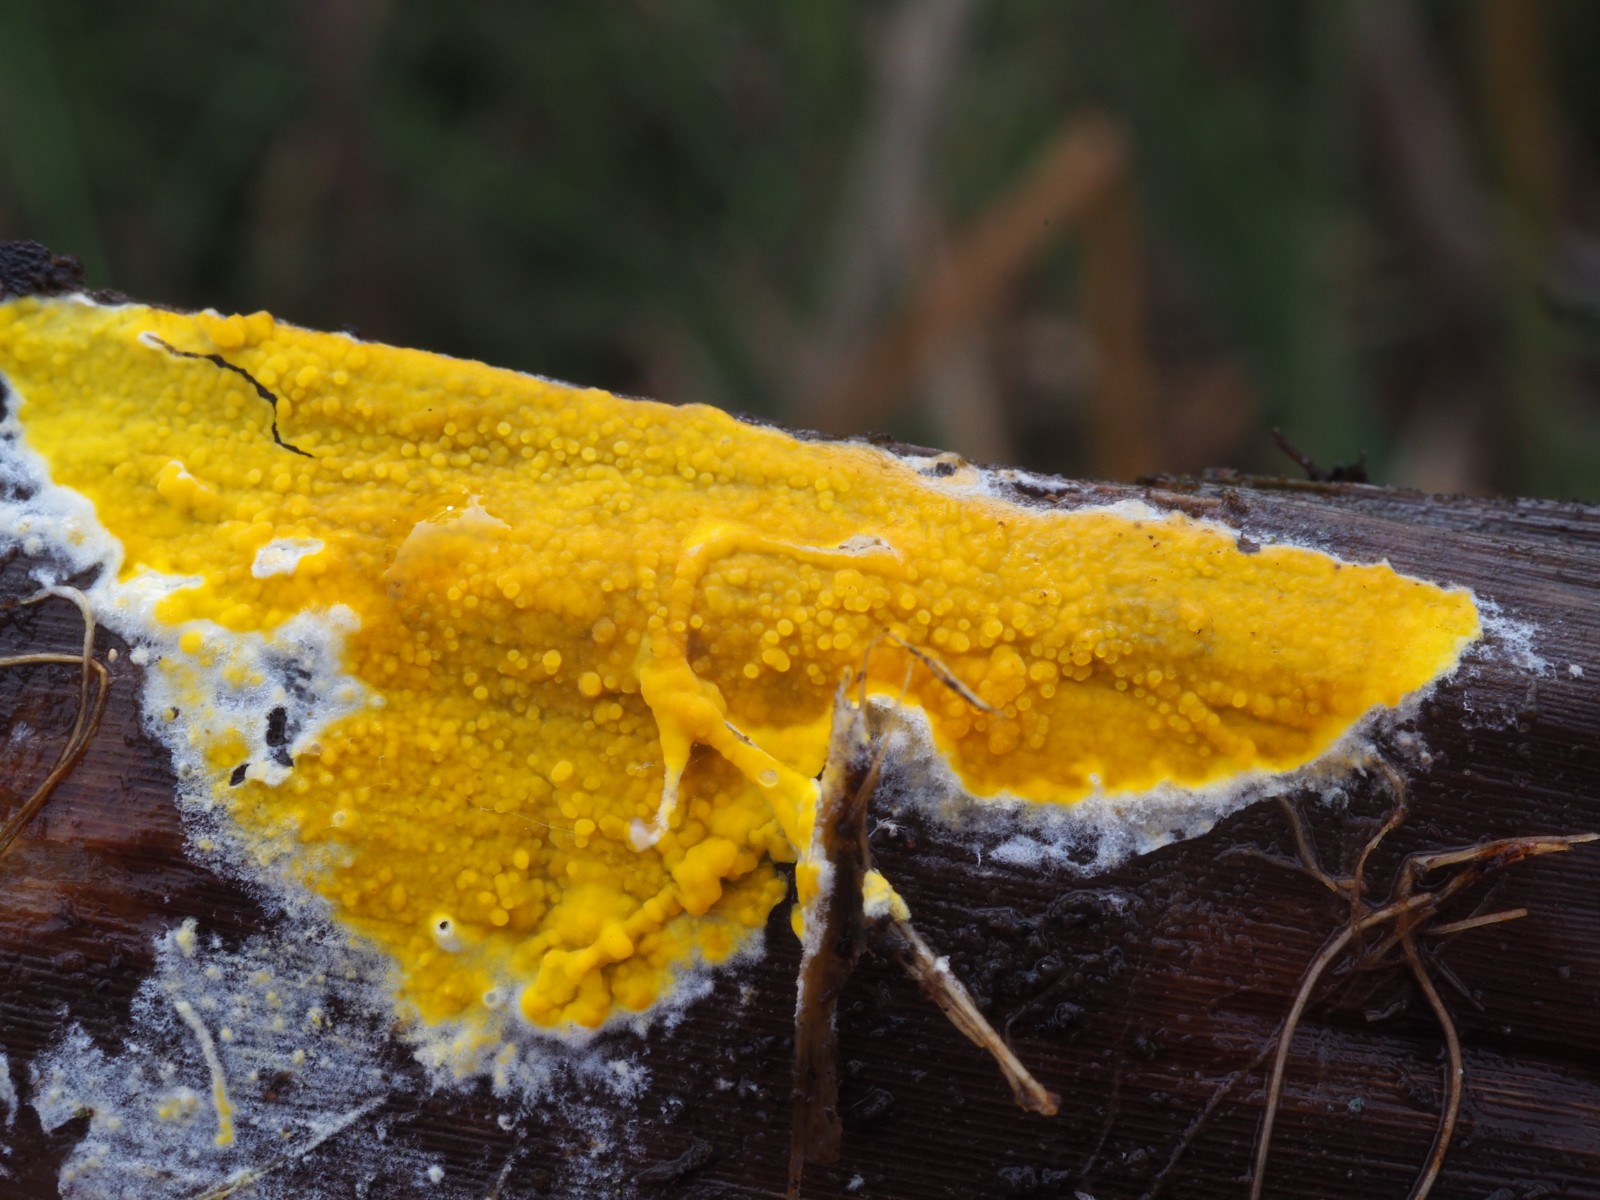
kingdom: Fungi
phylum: Basidiomycota
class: Agaricomycetes
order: Polyporales
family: Meruliaceae
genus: Phlebiodontia
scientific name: Phlebiodontia subochracea
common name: svovl-åresvamp
